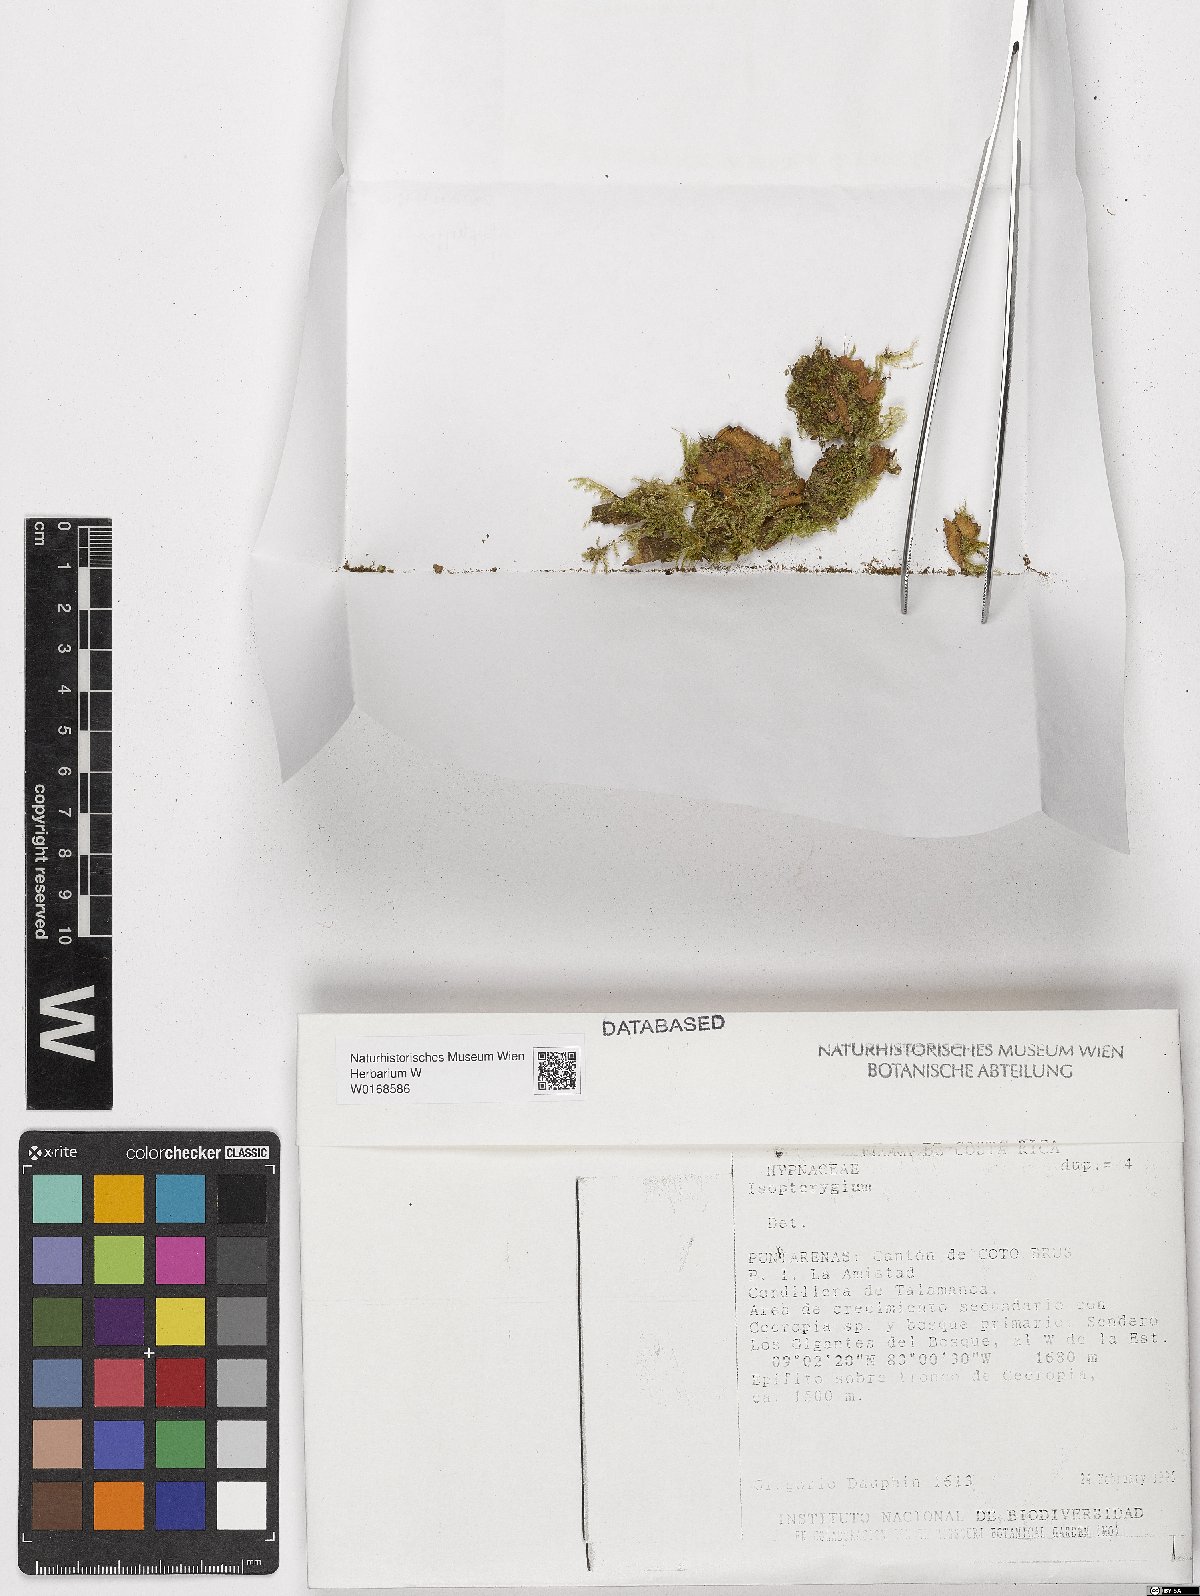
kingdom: Plantae
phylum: Bryophyta
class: Bryopsida
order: Hypnales
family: Pylaisiadelphaceae
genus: Isopterygium
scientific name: Isopterygium
